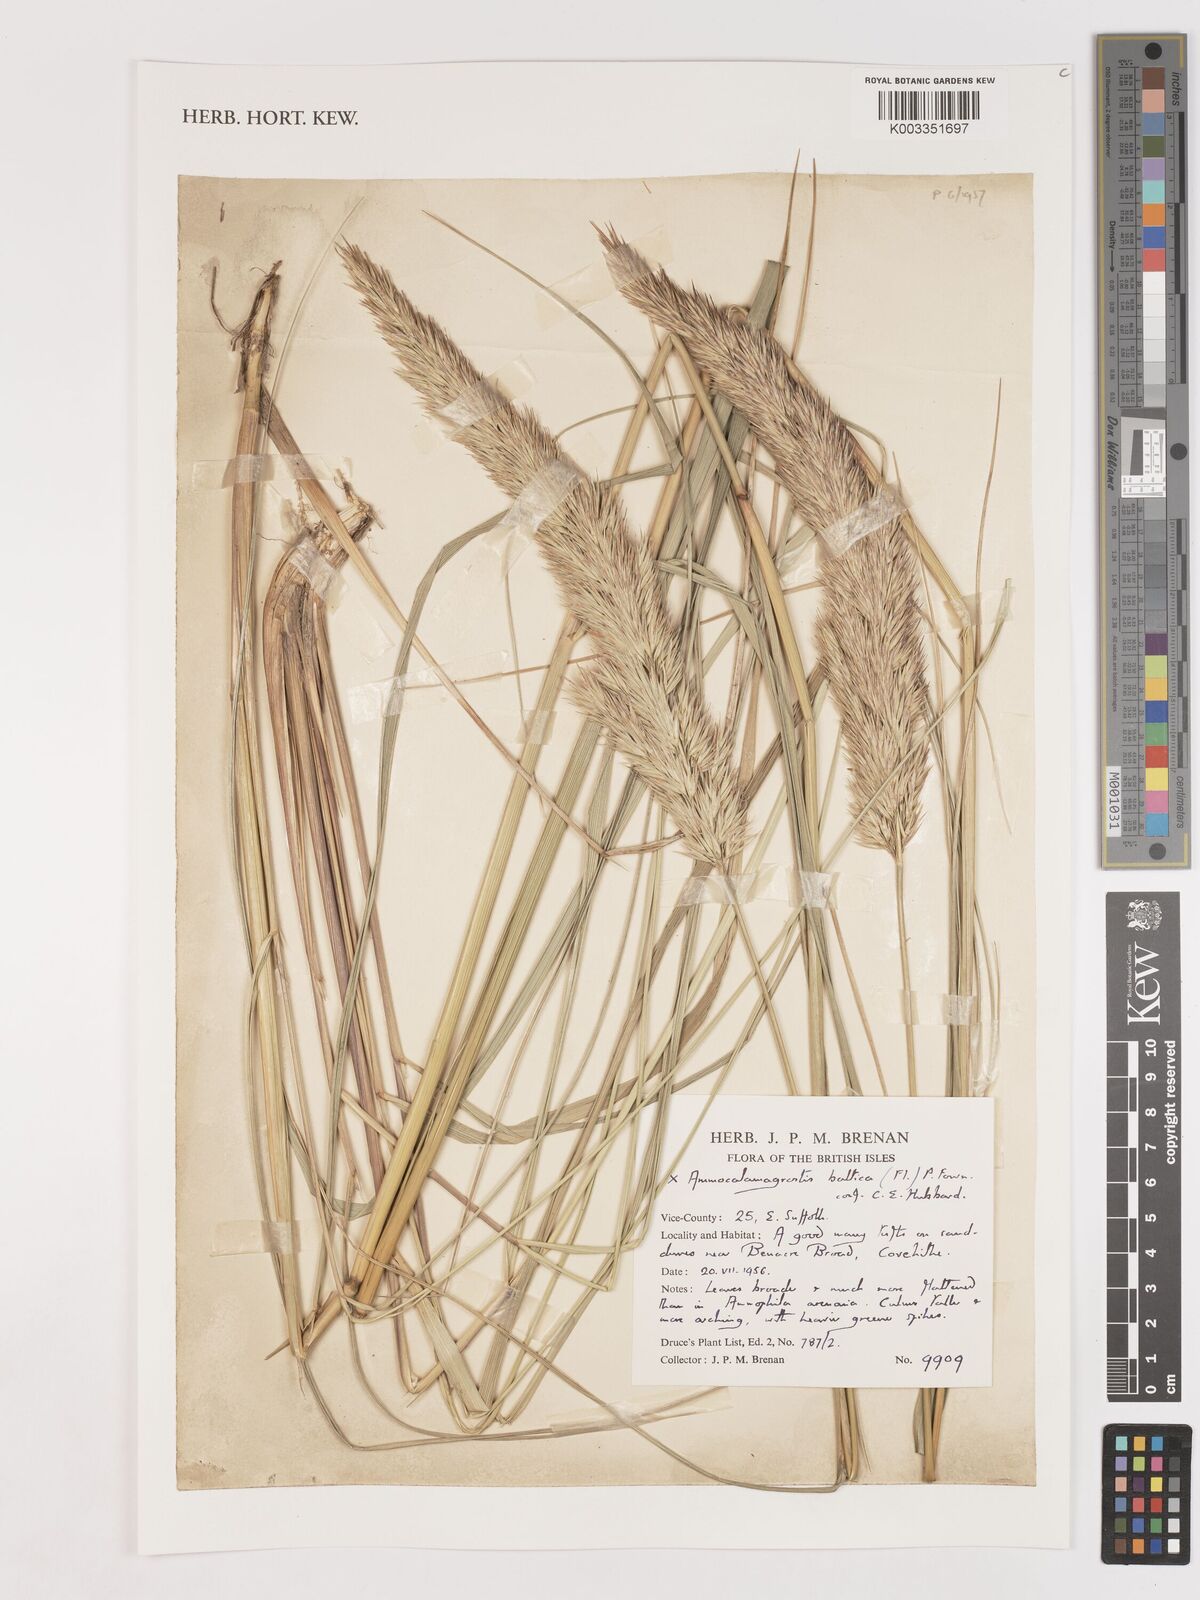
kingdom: Plantae
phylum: Tracheophyta
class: Liliopsida
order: Poales
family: Poaceae
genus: Calamagrostis
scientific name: Calamagrostis baltica
